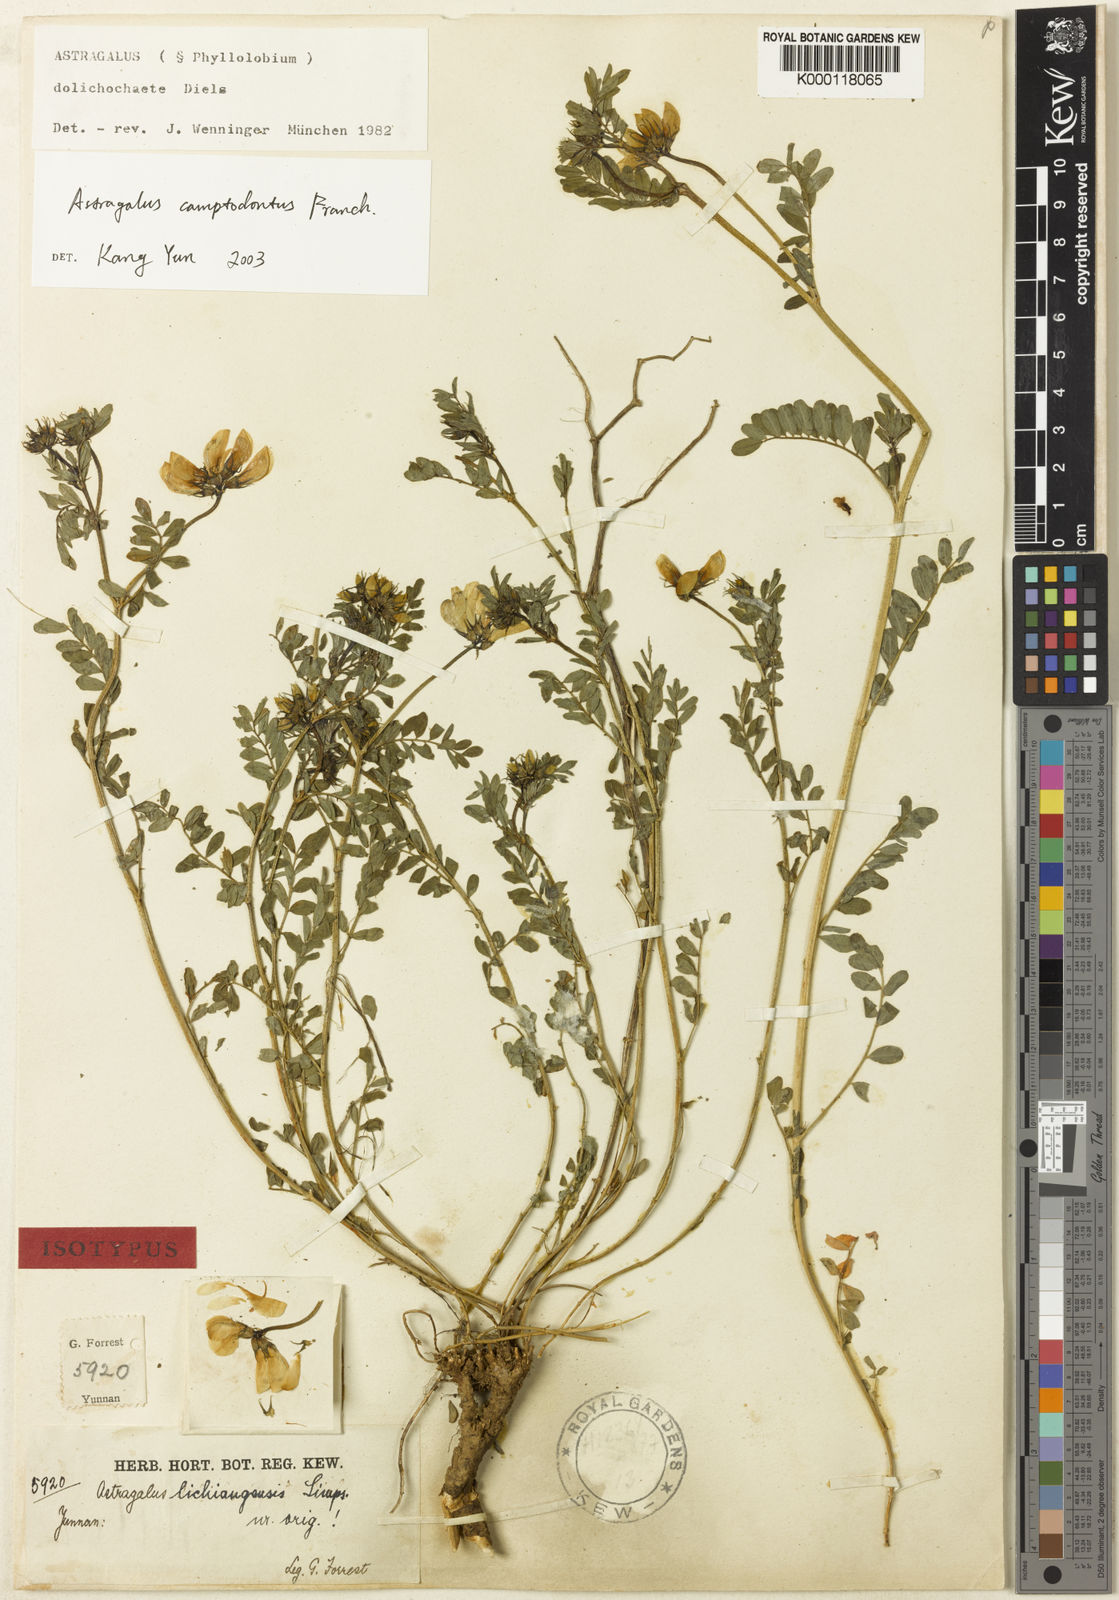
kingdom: Plantae
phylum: Tracheophyta
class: Magnoliopsida
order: Fabales
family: Fabaceae
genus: Astragalus
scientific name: Astragalus
